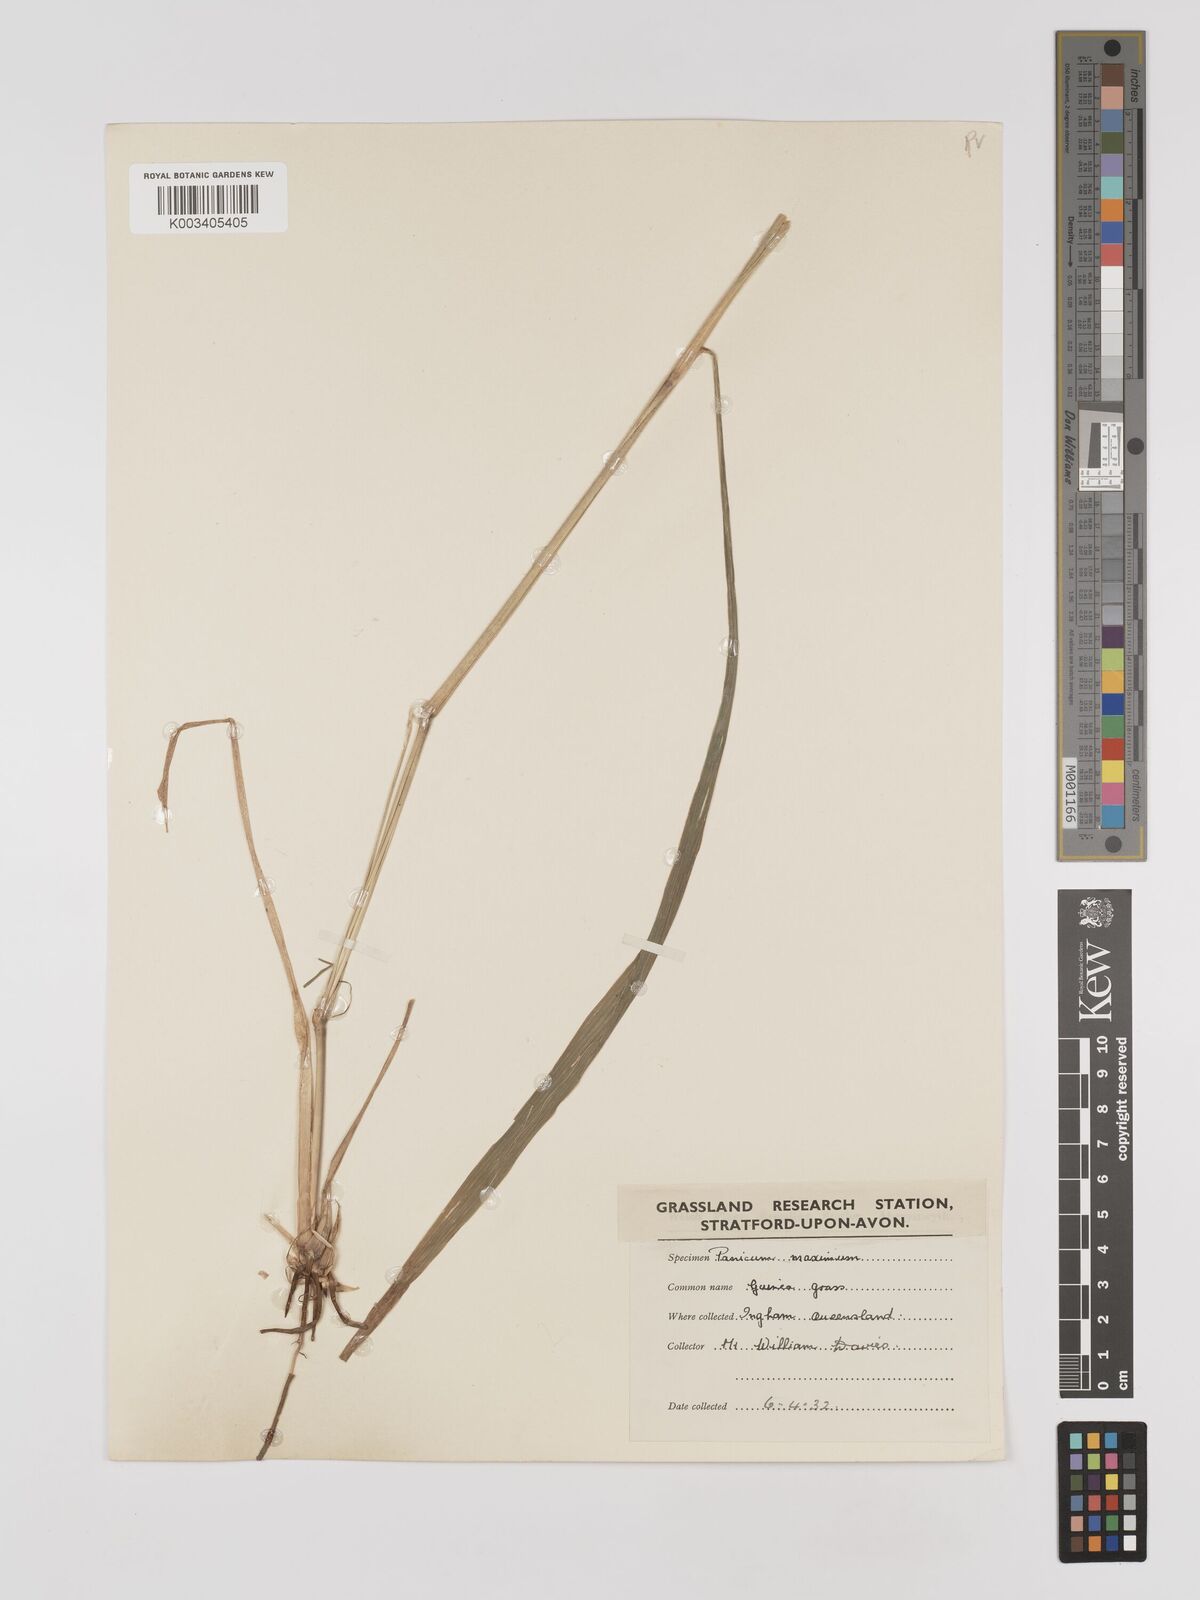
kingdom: Plantae
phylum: Tracheophyta
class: Liliopsida
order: Poales
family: Poaceae
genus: Megathyrsus
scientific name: Megathyrsus maximus
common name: Guineagrass
